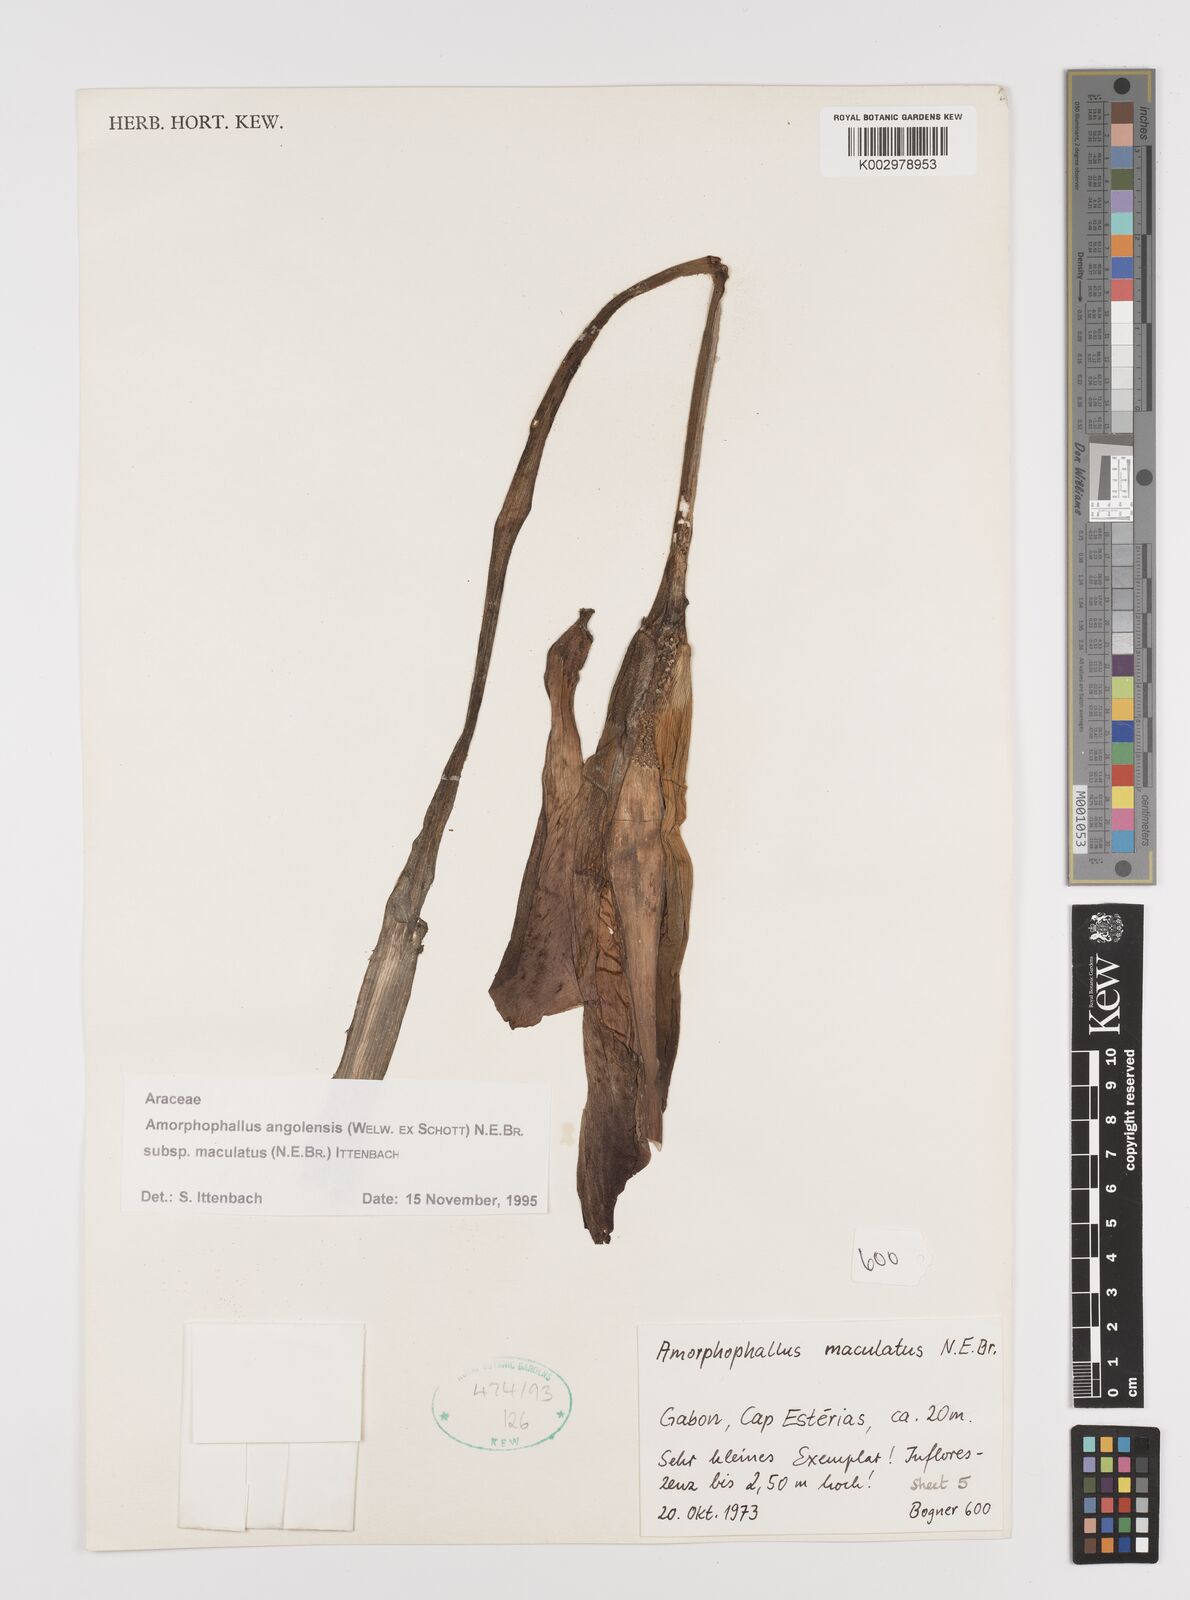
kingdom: Plantae
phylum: Tracheophyta
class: Liliopsida
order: Alismatales
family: Araceae
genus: Amorphophallus
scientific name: Amorphophallus angolensis
